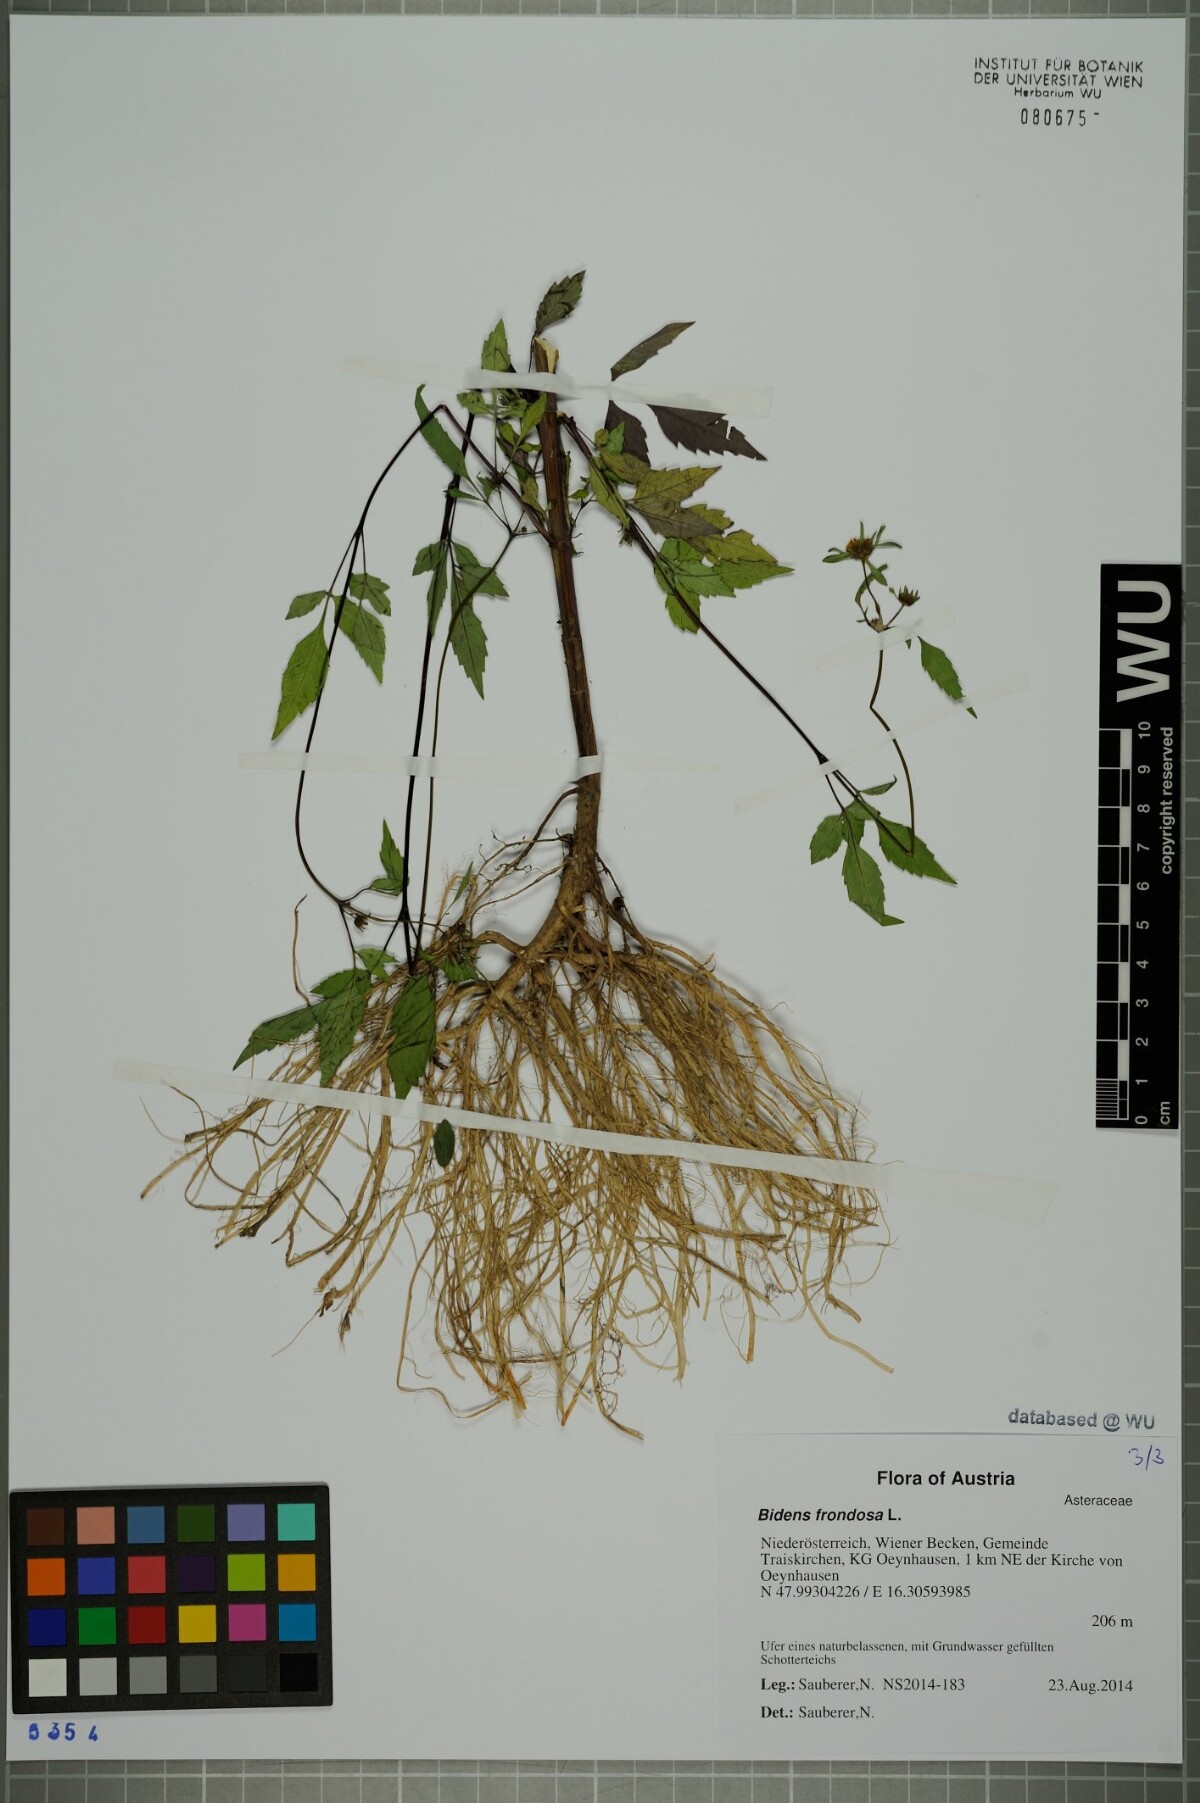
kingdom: Plantae
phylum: Tracheophyta
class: Magnoliopsida
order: Asterales
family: Asteraceae
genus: Bidens
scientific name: Bidens frondosa
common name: Beggarticks
